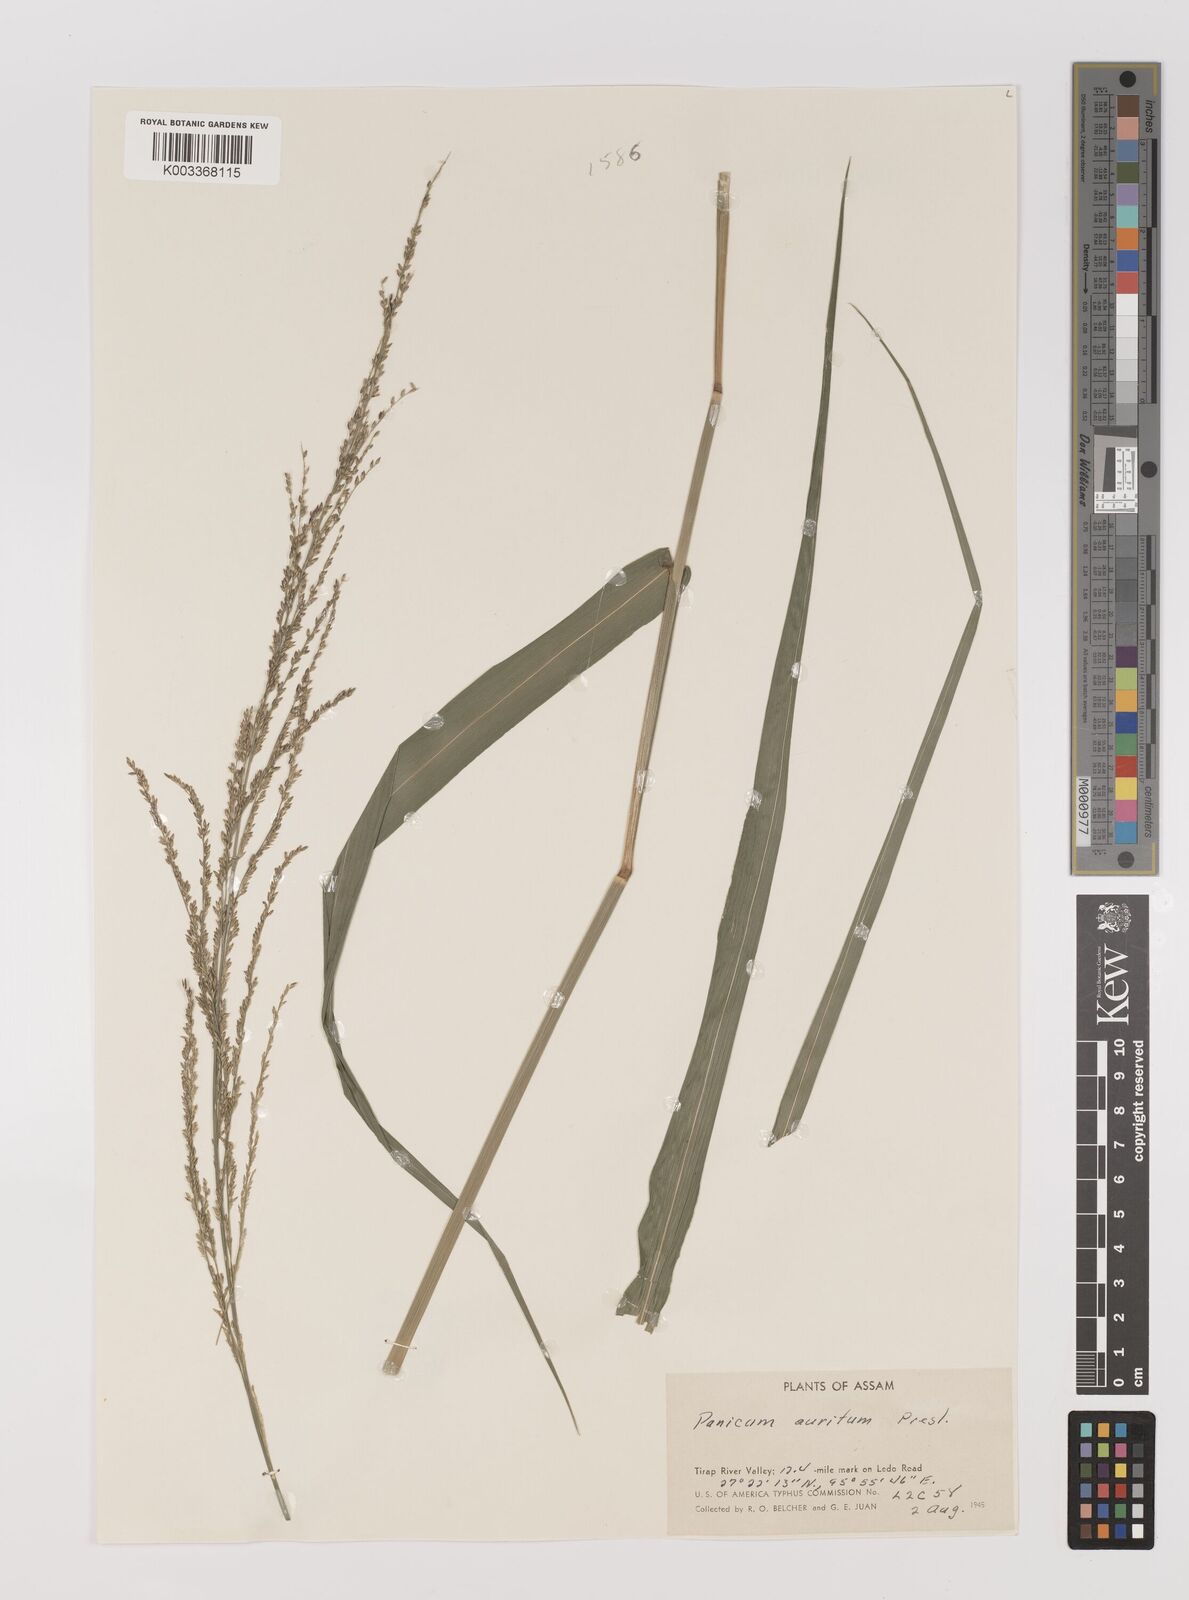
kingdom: Plantae
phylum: Tracheophyta
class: Liliopsida
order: Poales
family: Poaceae
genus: Hymenachne
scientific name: Hymenachne aurita
